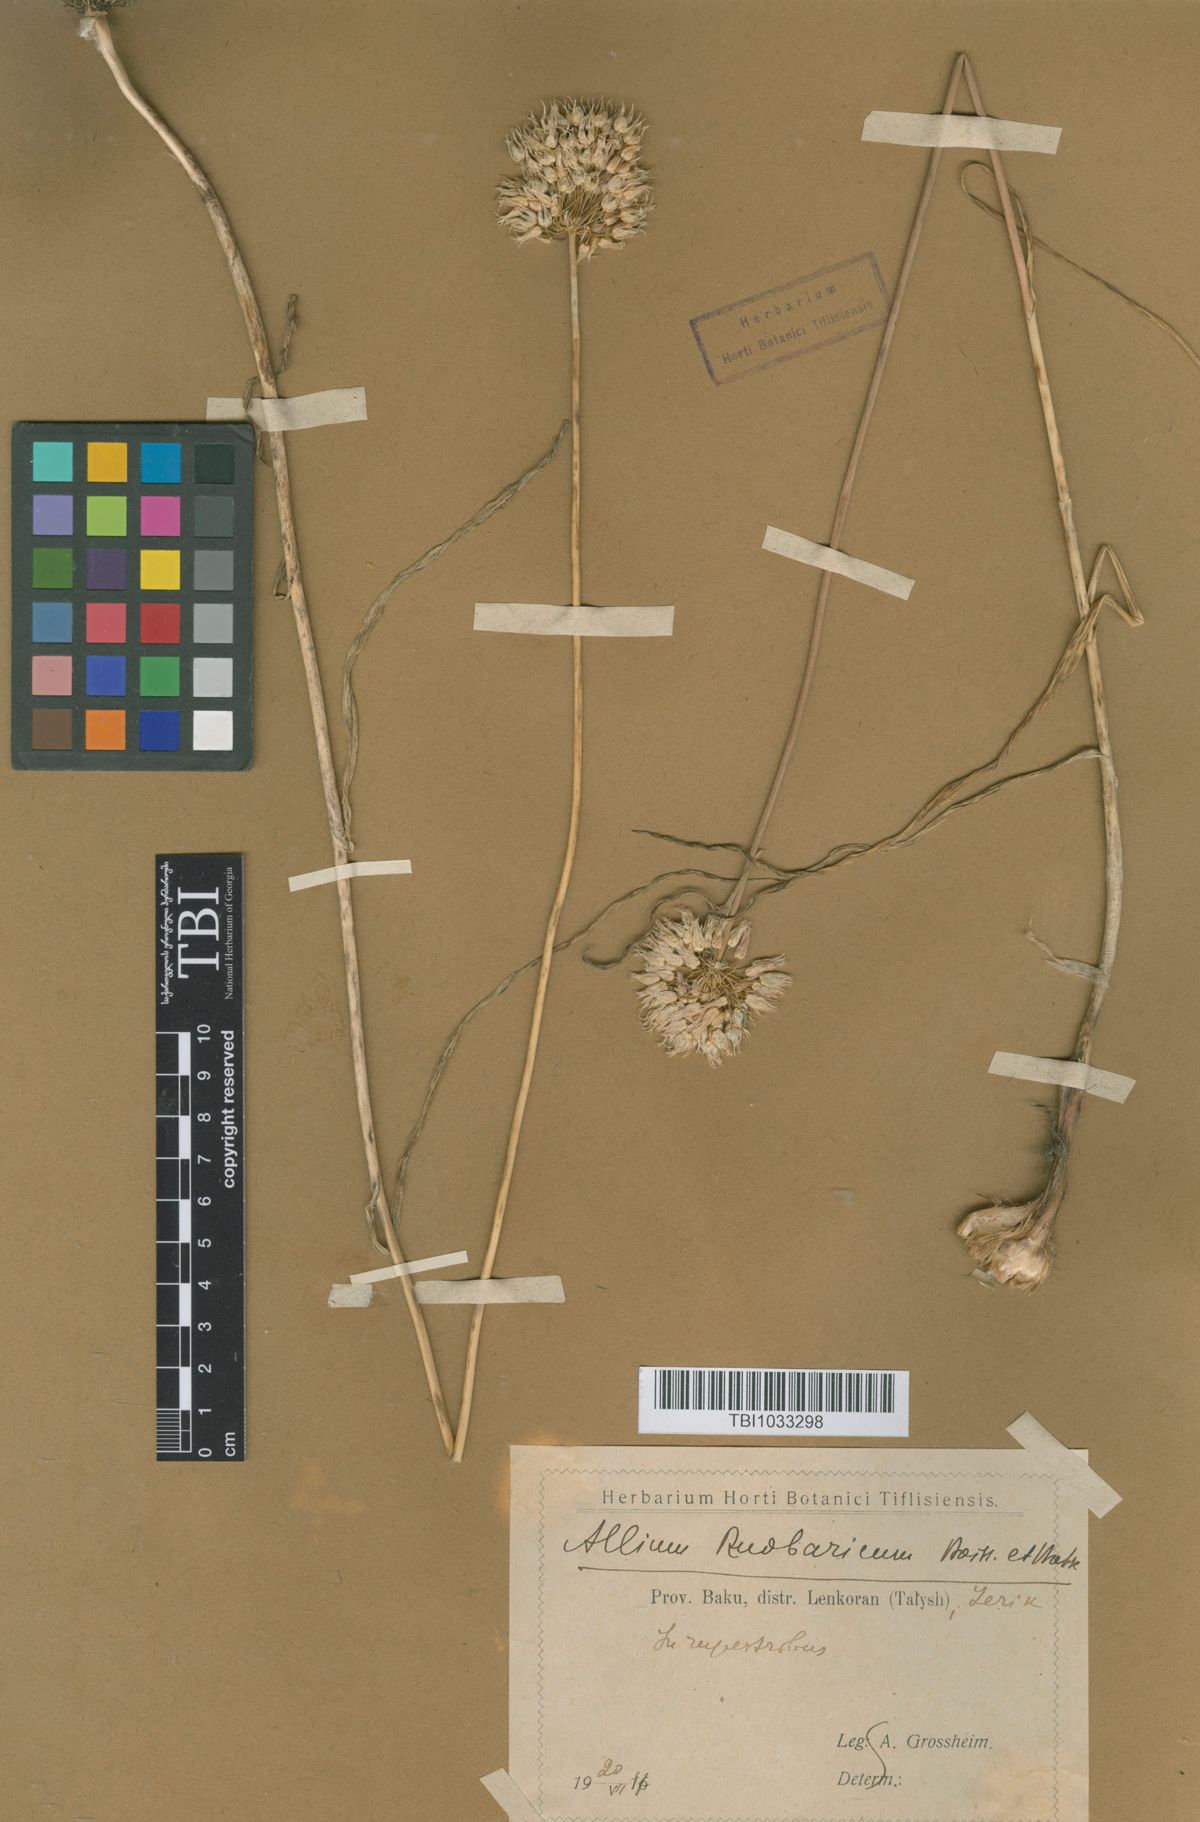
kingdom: Plantae
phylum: Tracheophyta
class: Liliopsida
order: Asparagales
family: Amaryllidaceae
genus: Allium
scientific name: Allium erubescens
